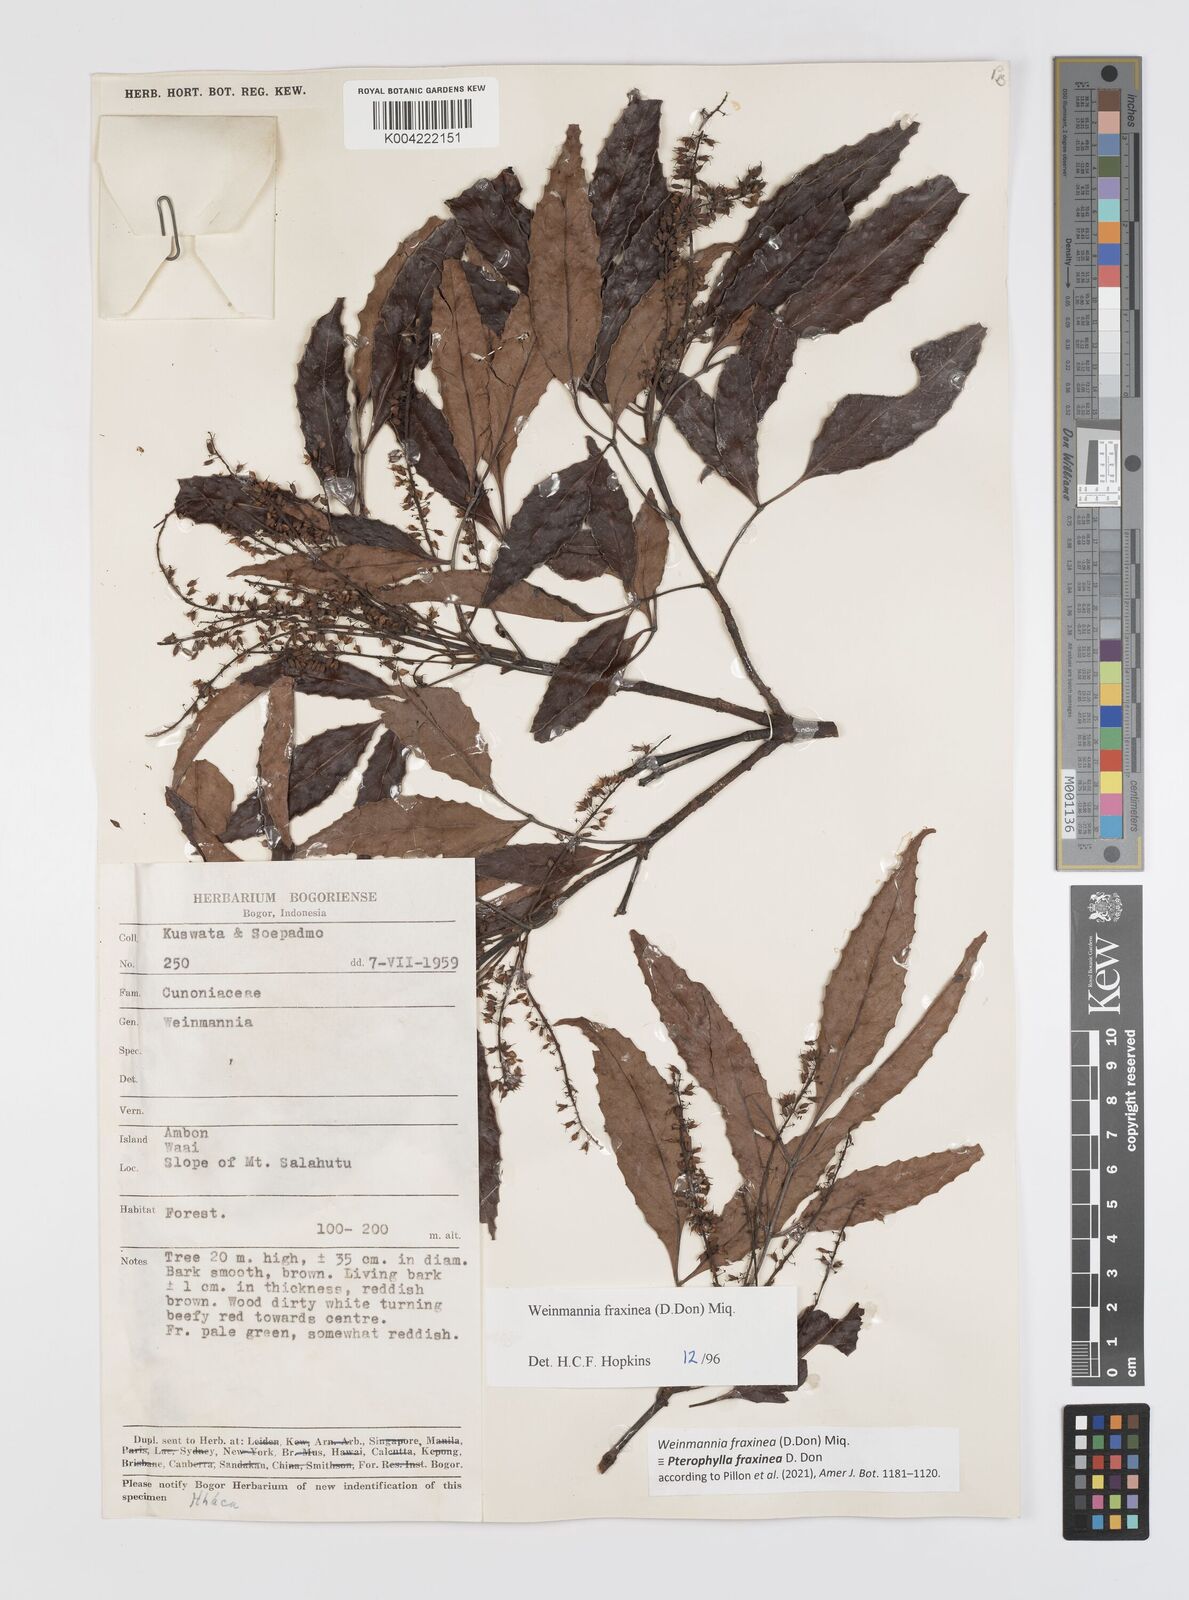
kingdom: Plantae
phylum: Tracheophyta
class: Magnoliopsida
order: Oxalidales
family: Cunoniaceae
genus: Pterophylla
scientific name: Pterophylla fraxinea
